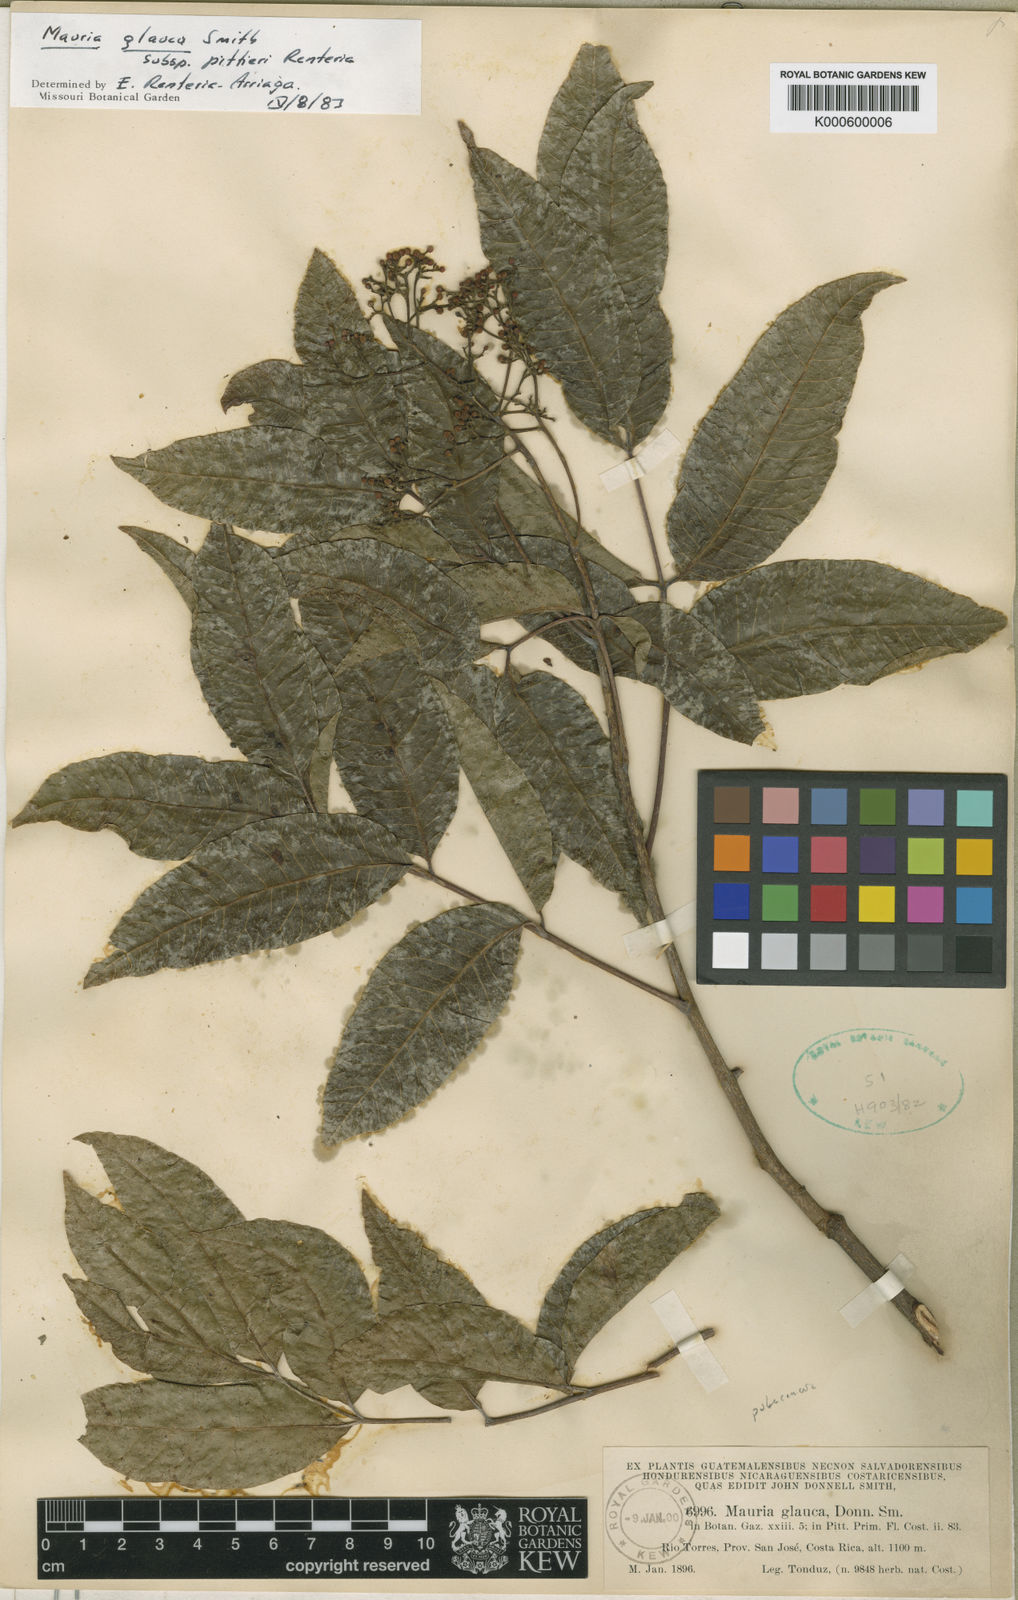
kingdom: Plantae
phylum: Tracheophyta
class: Magnoliopsida
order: Sapindales
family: Anacardiaceae
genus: Mauria
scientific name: Mauria heterophylla
